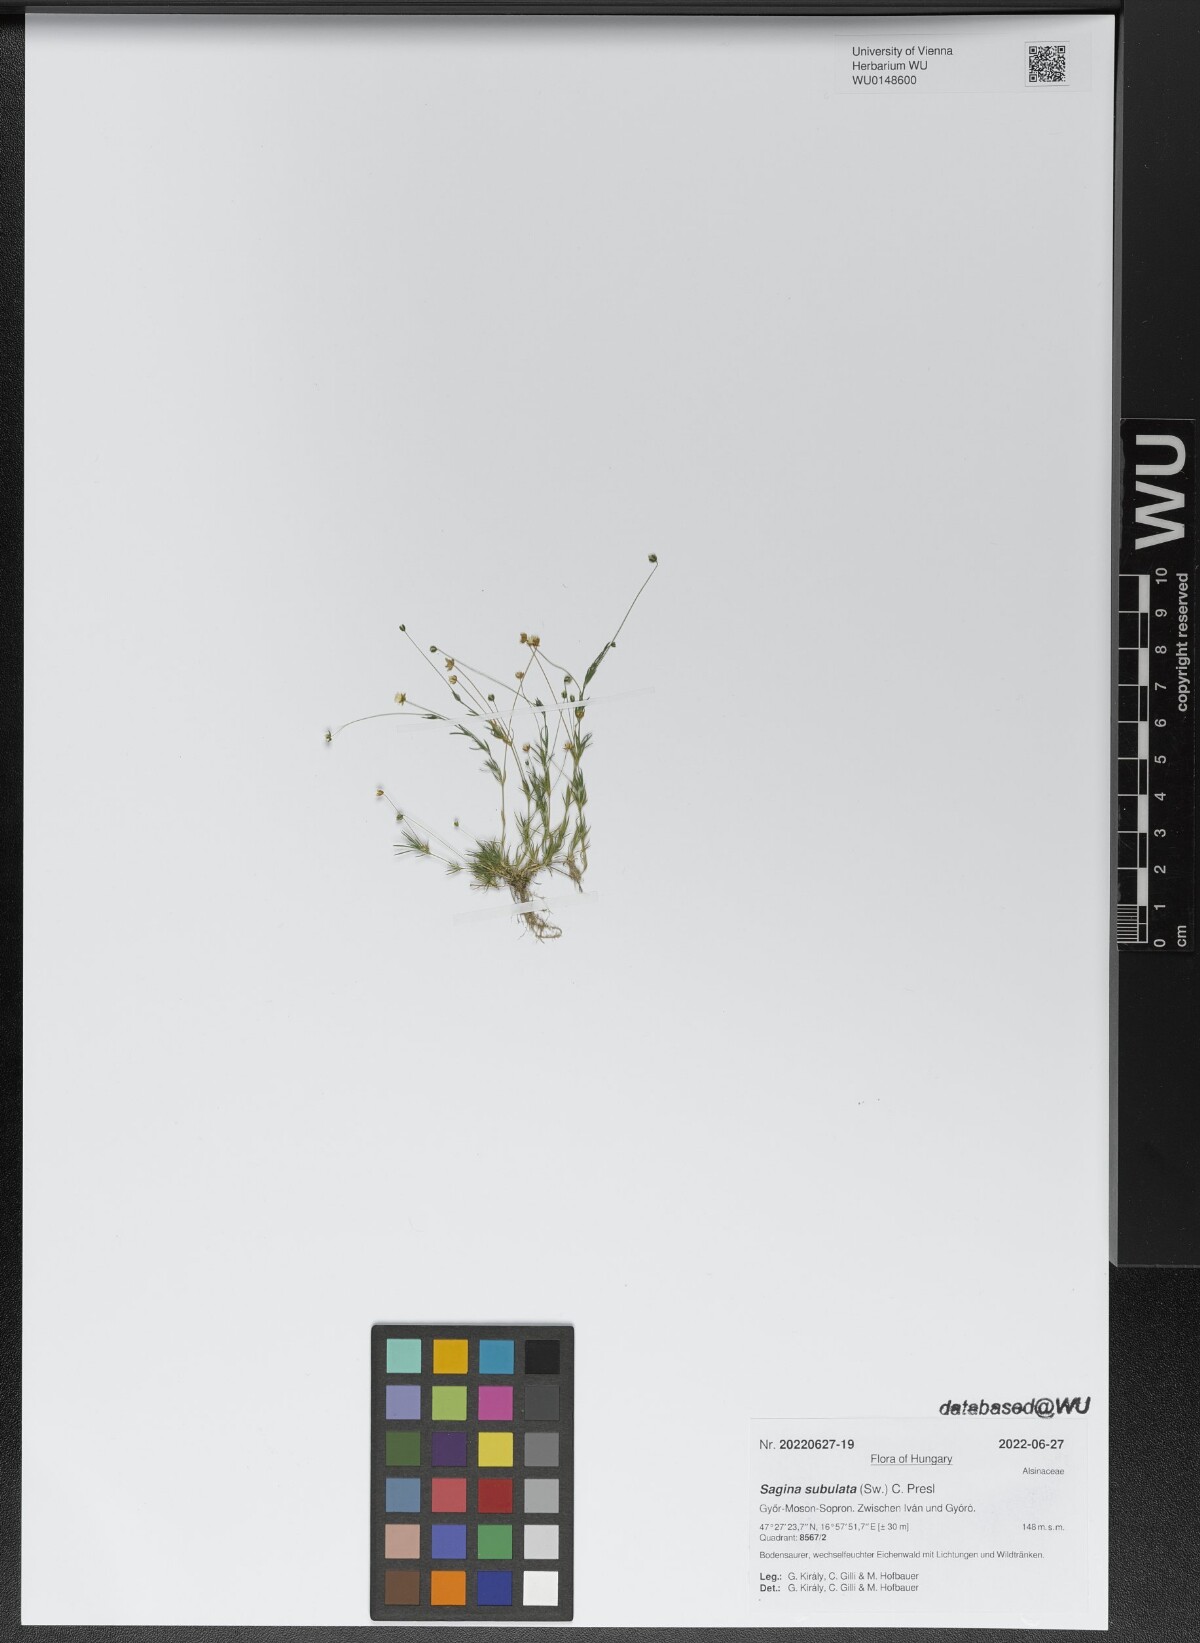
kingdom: Plantae
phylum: Tracheophyta
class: Magnoliopsida
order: Caryophyllales
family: Caryophyllaceae
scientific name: Caryophyllaceae
